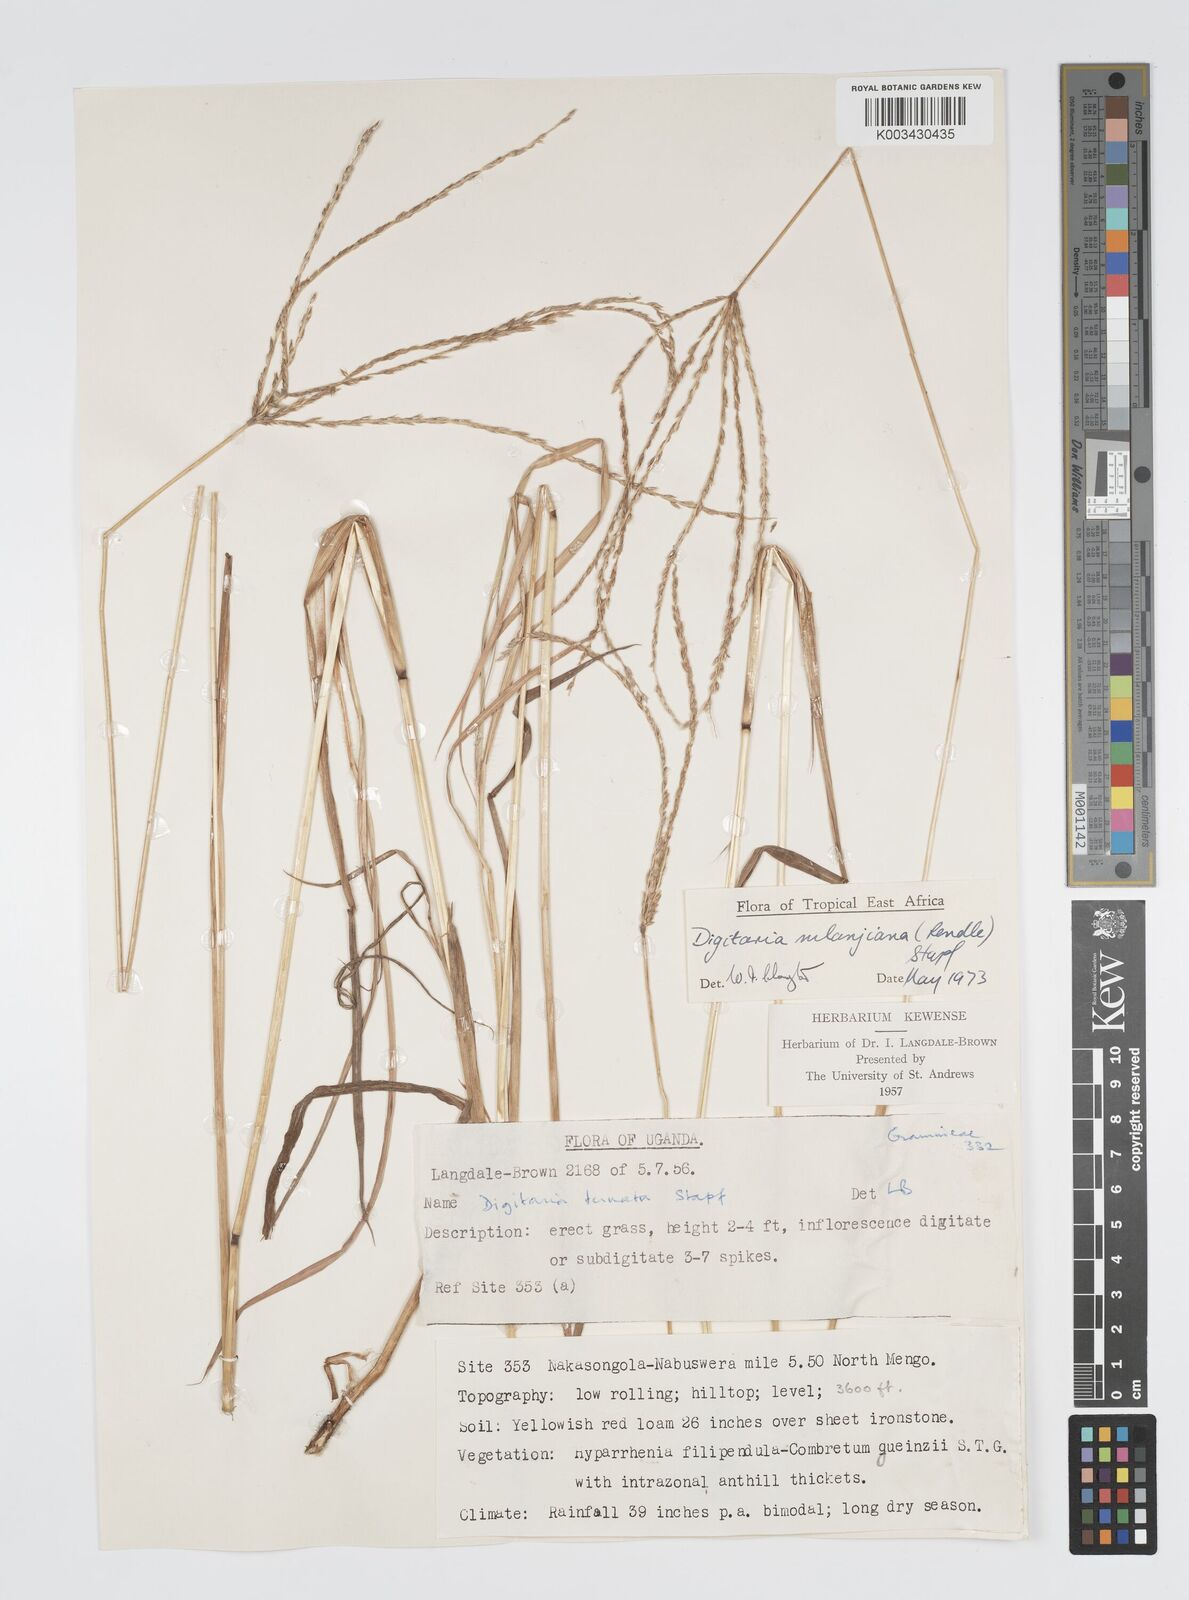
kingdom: Plantae
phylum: Tracheophyta
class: Liliopsida
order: Poales
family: Poaceae
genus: Digitaria
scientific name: Digitaria milanjiana
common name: Madagascar crabgrass
